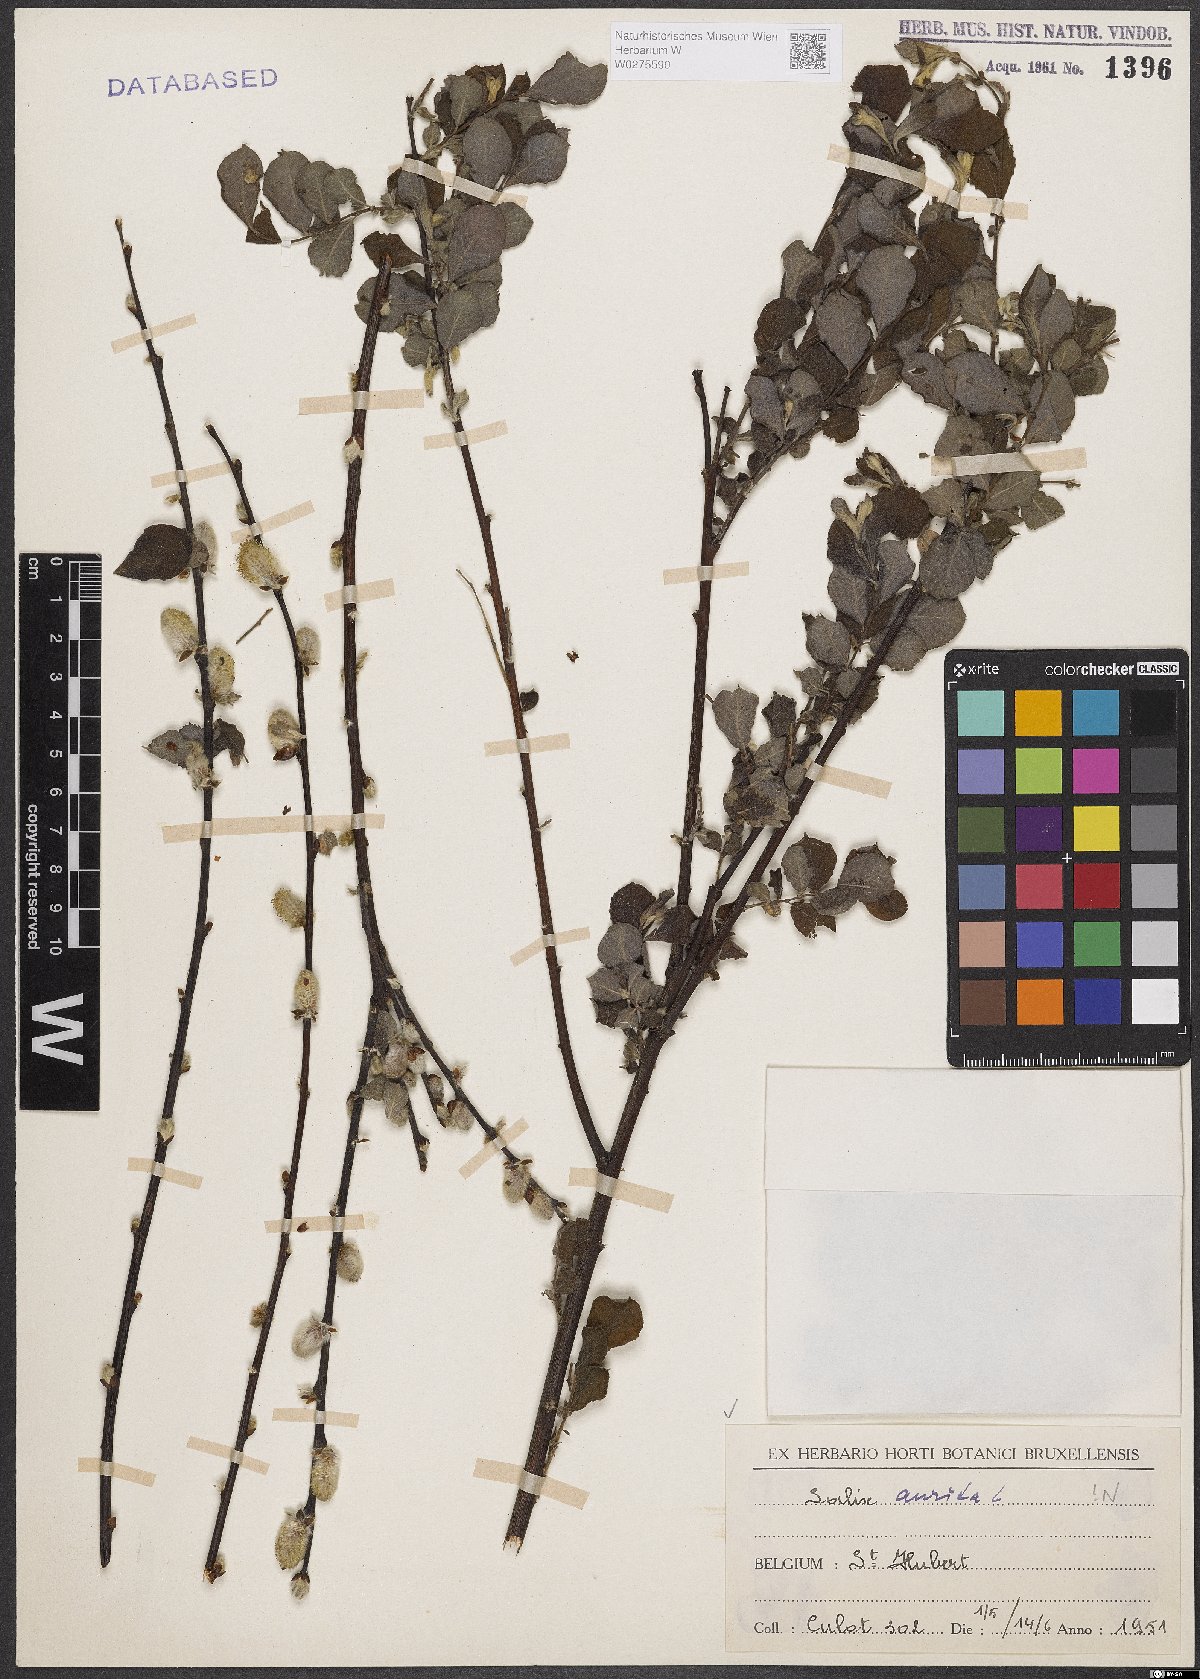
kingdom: Plantae
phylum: Tracheophyta
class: Magnoliopsida
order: Malpighiales
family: Salicaceae
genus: Salix
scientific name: Salix aurita
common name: Eared willow
